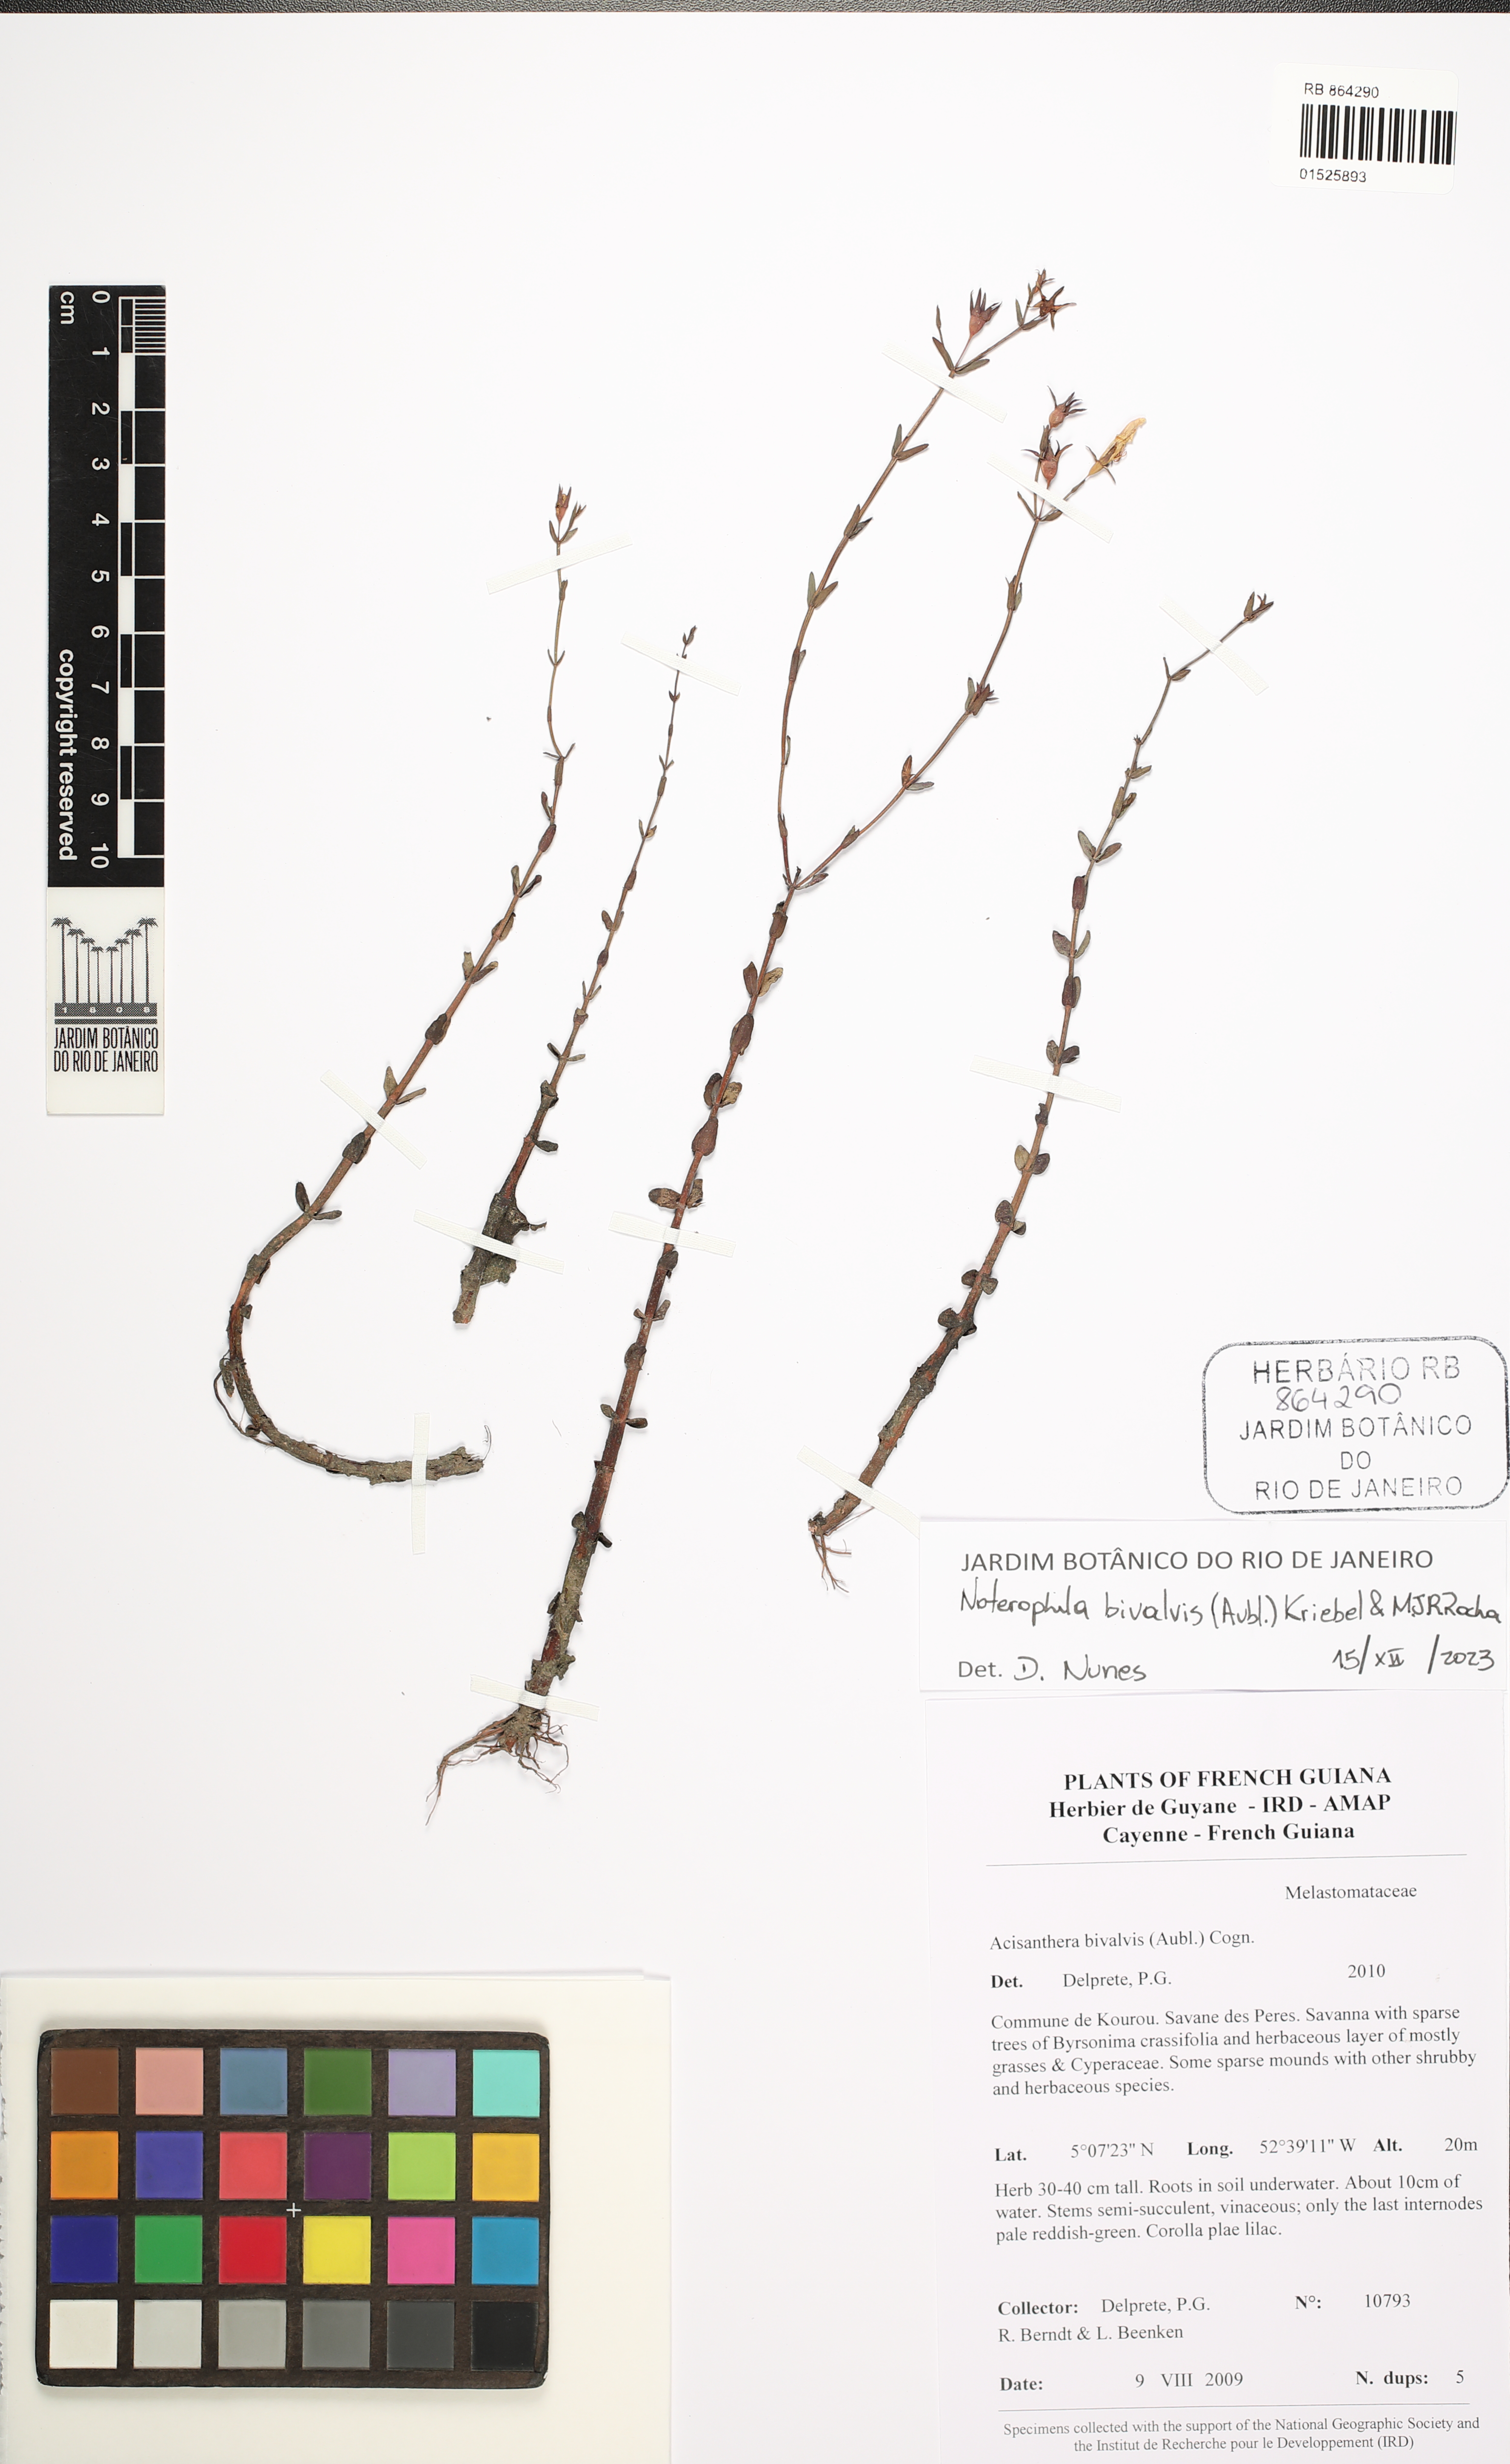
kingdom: Plantae
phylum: Tracheophyta
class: Magnoliopsida
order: Myrtales
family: Melastomataceae
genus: Noterophila
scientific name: Noterophila bivalvis
